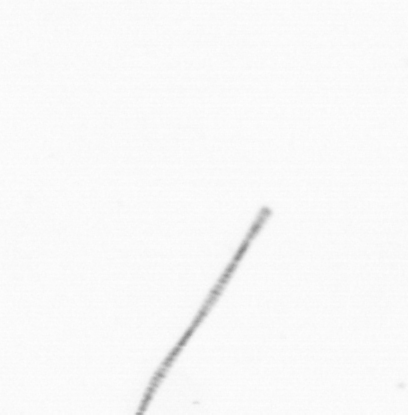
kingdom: Chromista
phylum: Ochrophyta
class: Bacillariophyceae
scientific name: Bacillariophyceae
